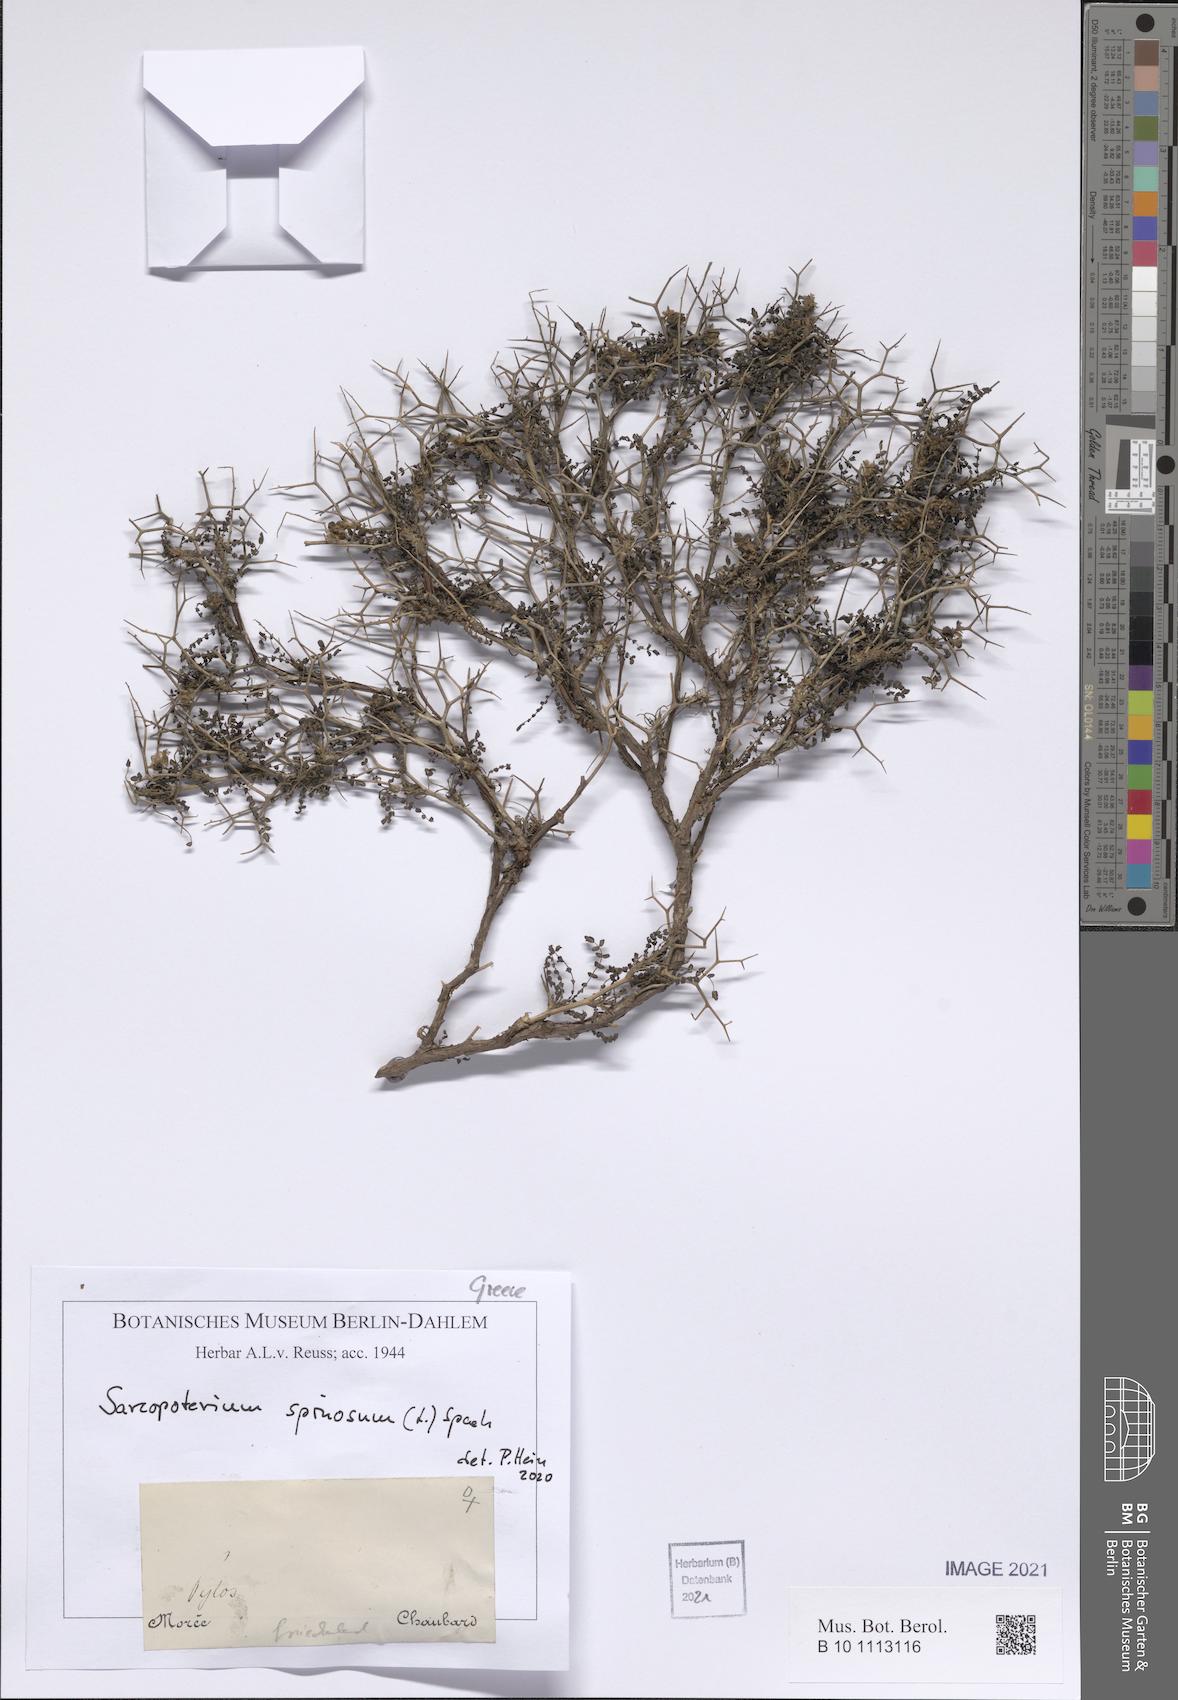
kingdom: Plantae
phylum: Tracheophyta
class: Magnoliopsida
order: Rosales
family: Rosaceae
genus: Sarcopoterium
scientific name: Sarcopoterium spinosum
